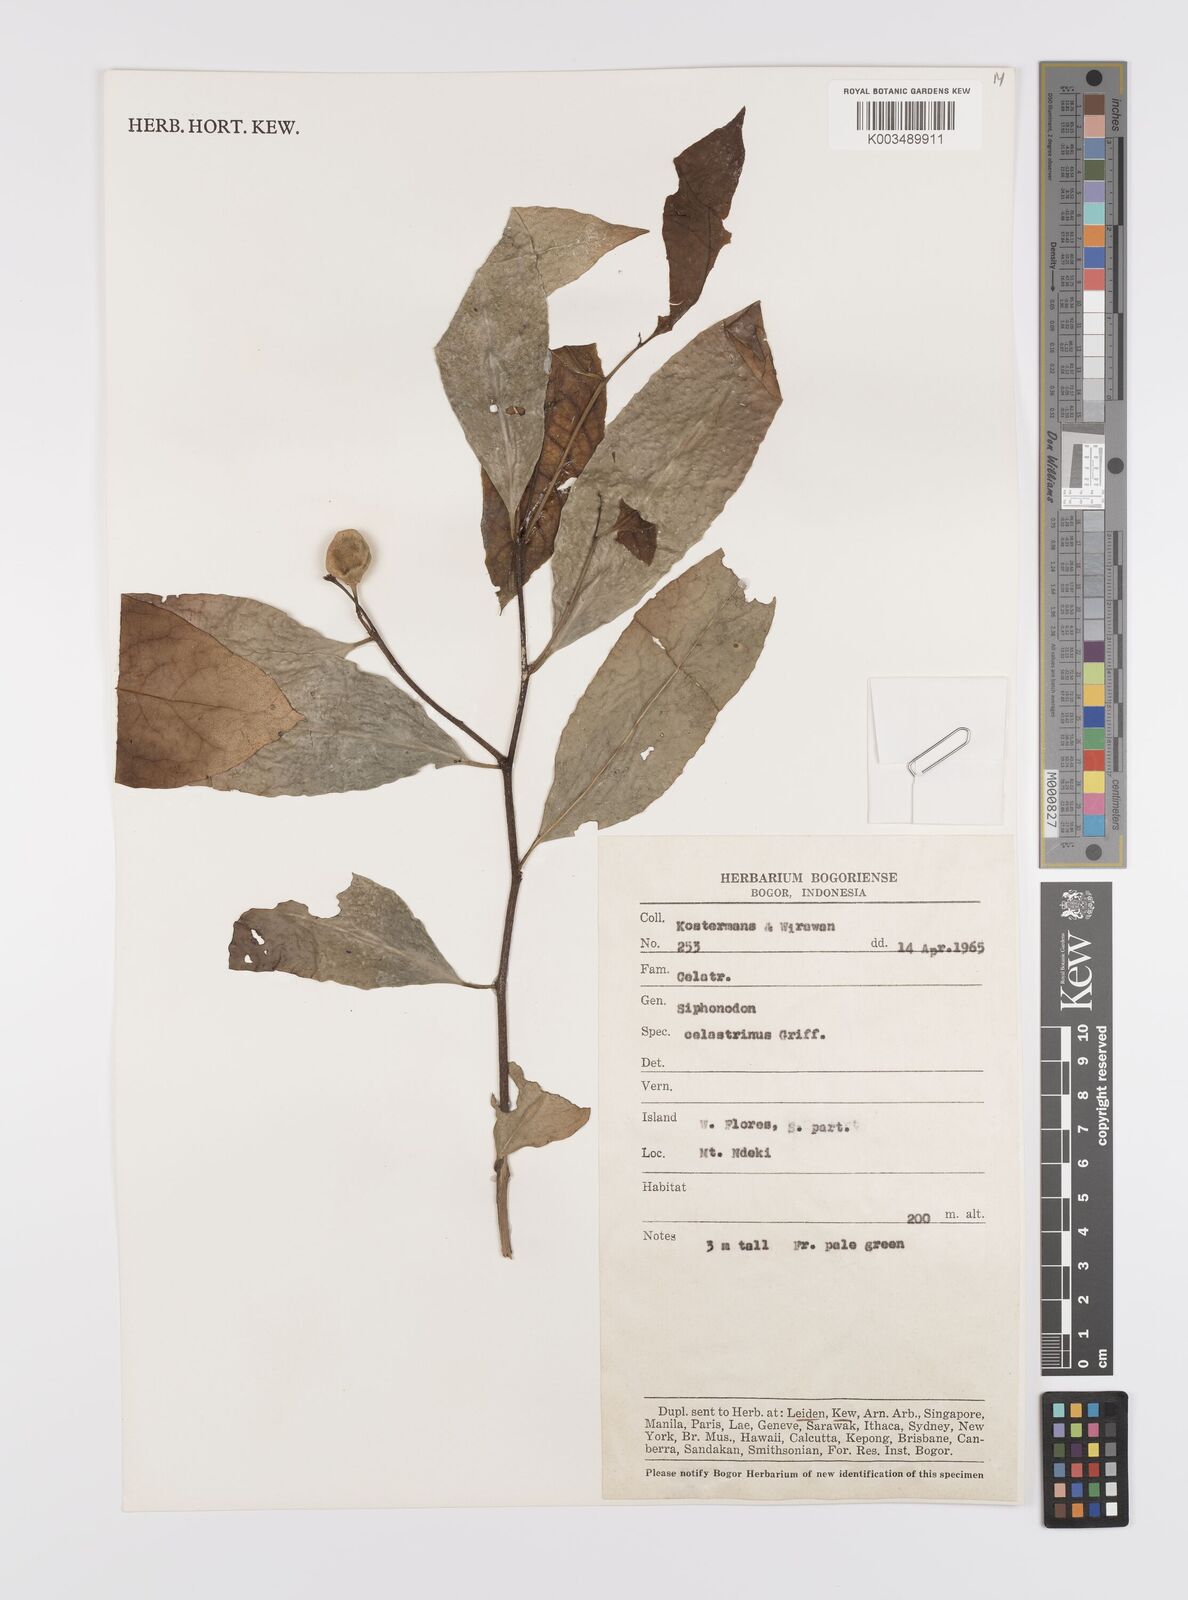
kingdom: Plantae
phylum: Tracheophyta
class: Magnoliopsida
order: Celastrales
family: Celastraceae
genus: Siphonodon
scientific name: Siphonodon celastrineus
